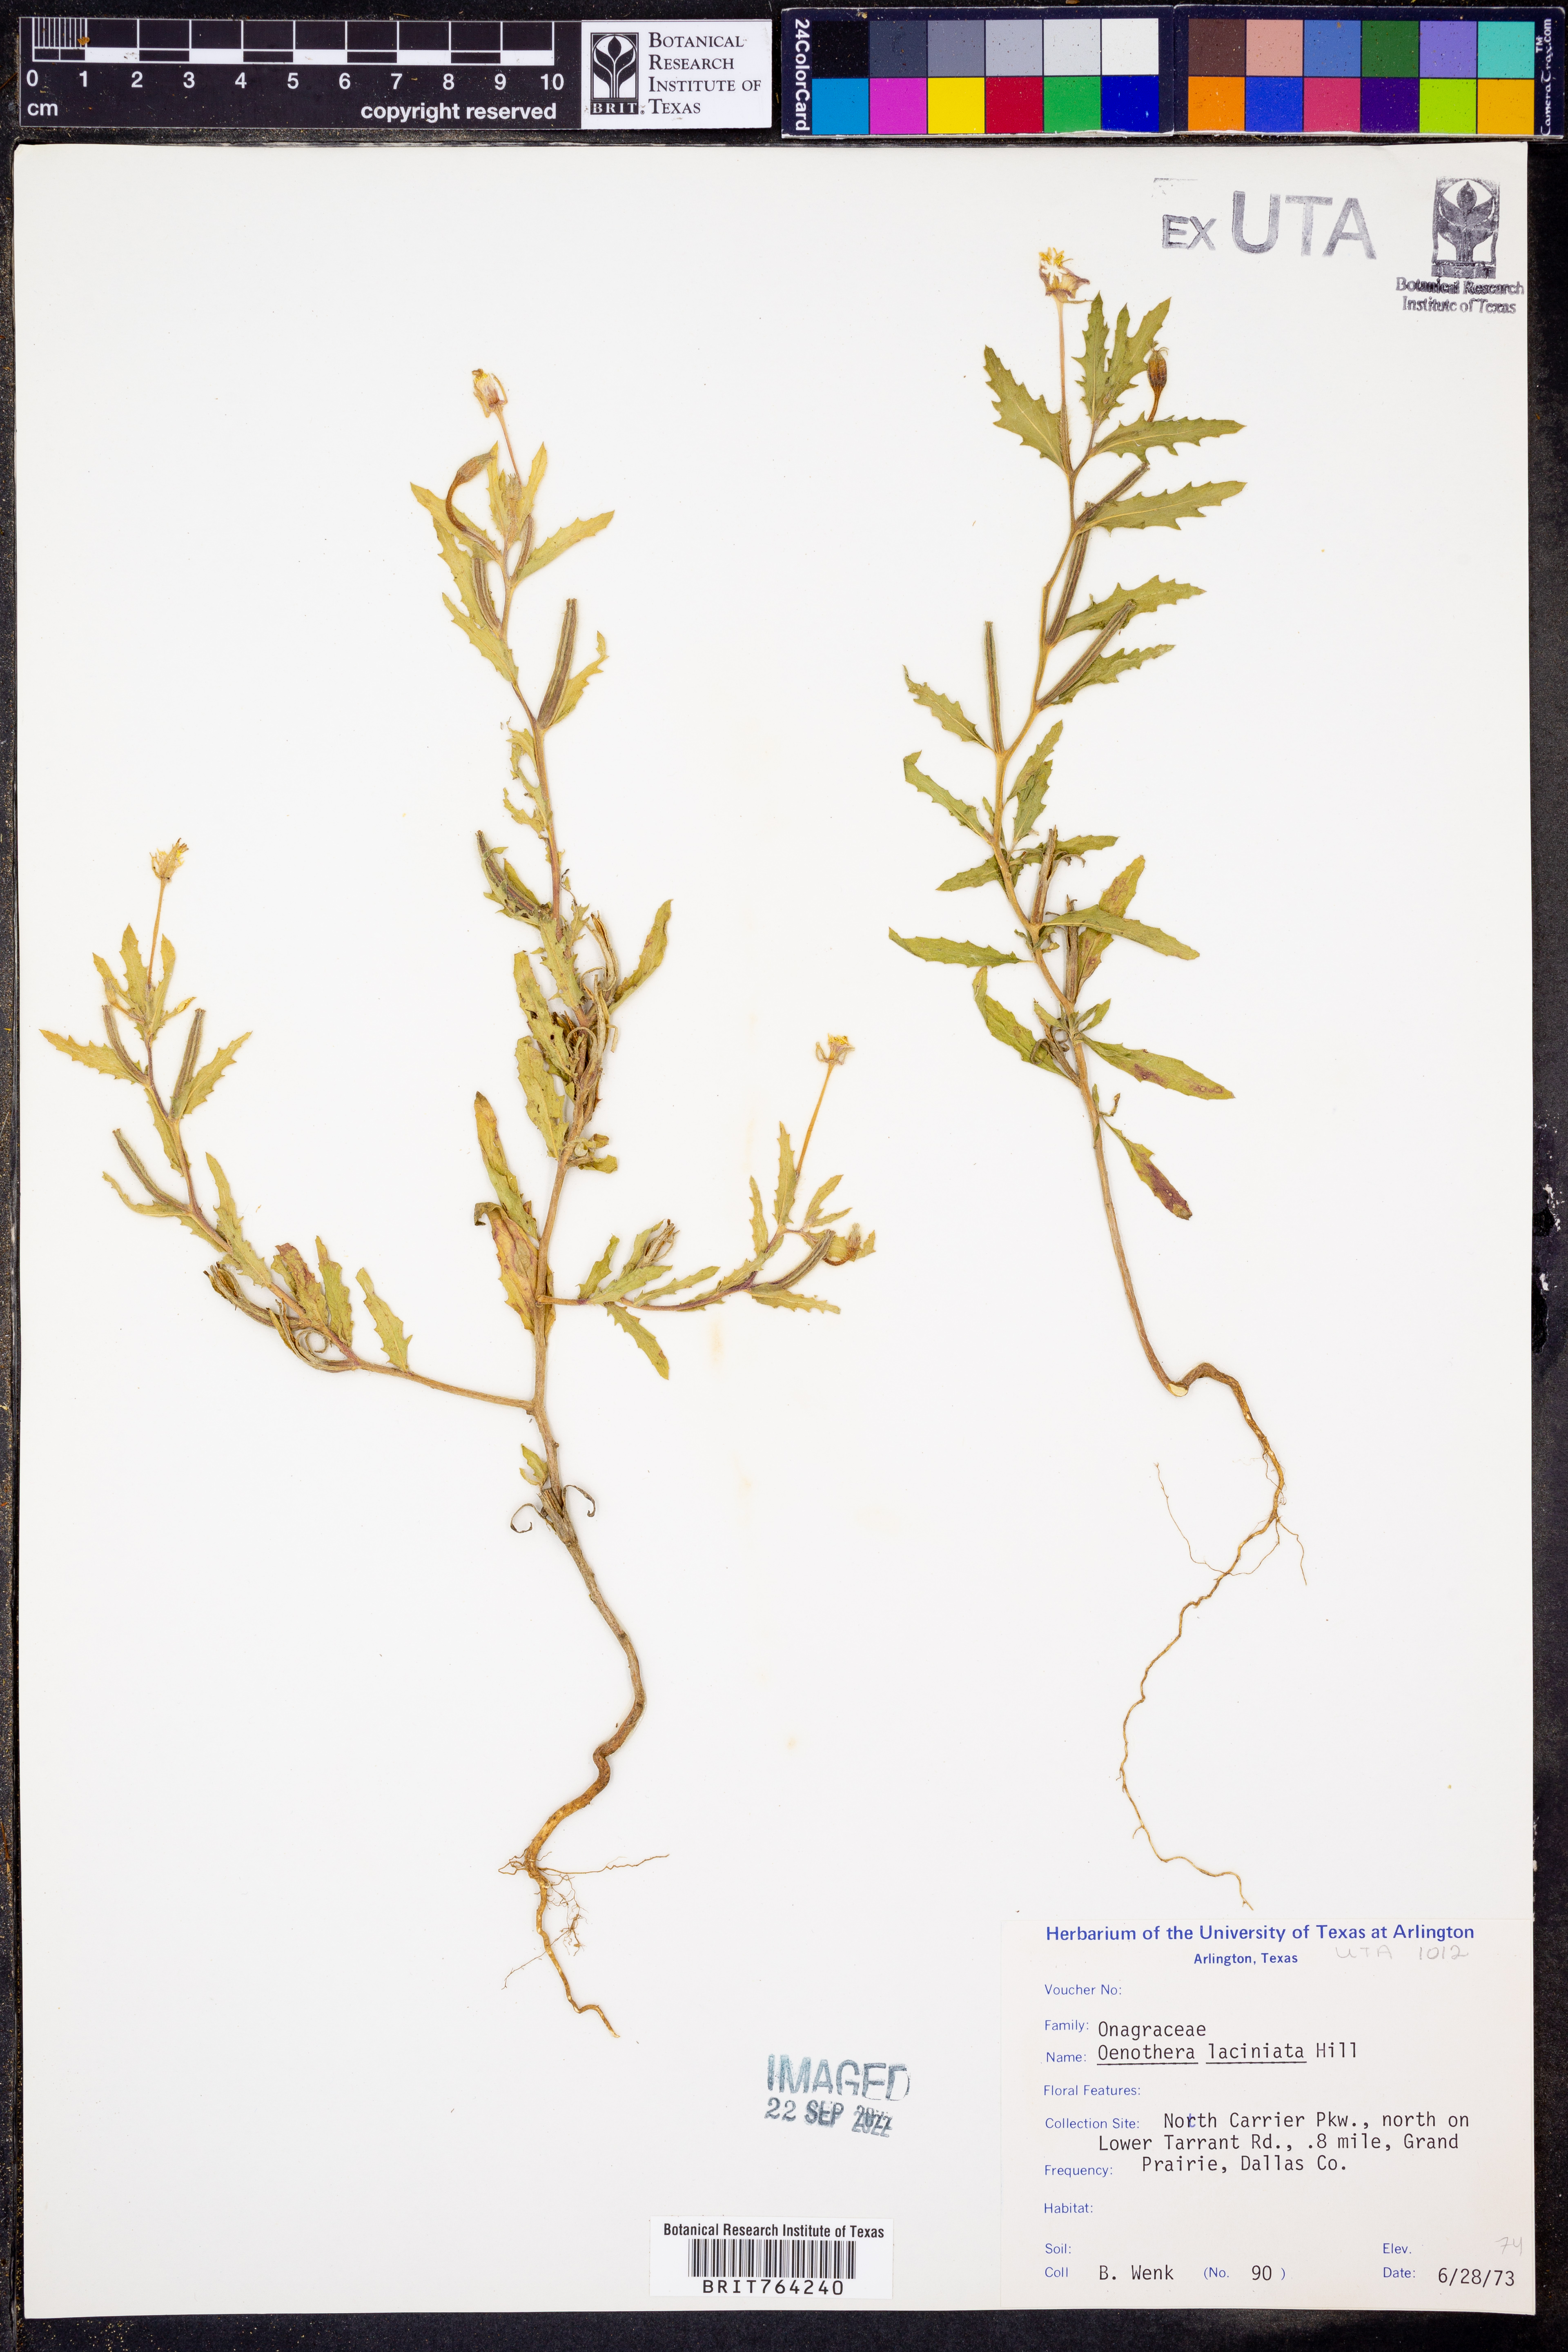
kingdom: Plantae
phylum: Tracheophyta
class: Magnoliopsida
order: Myrtales
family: Onagraceae
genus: Oenothera
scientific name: Oenothera laciniata
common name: Cut-leaved evening-primrose
